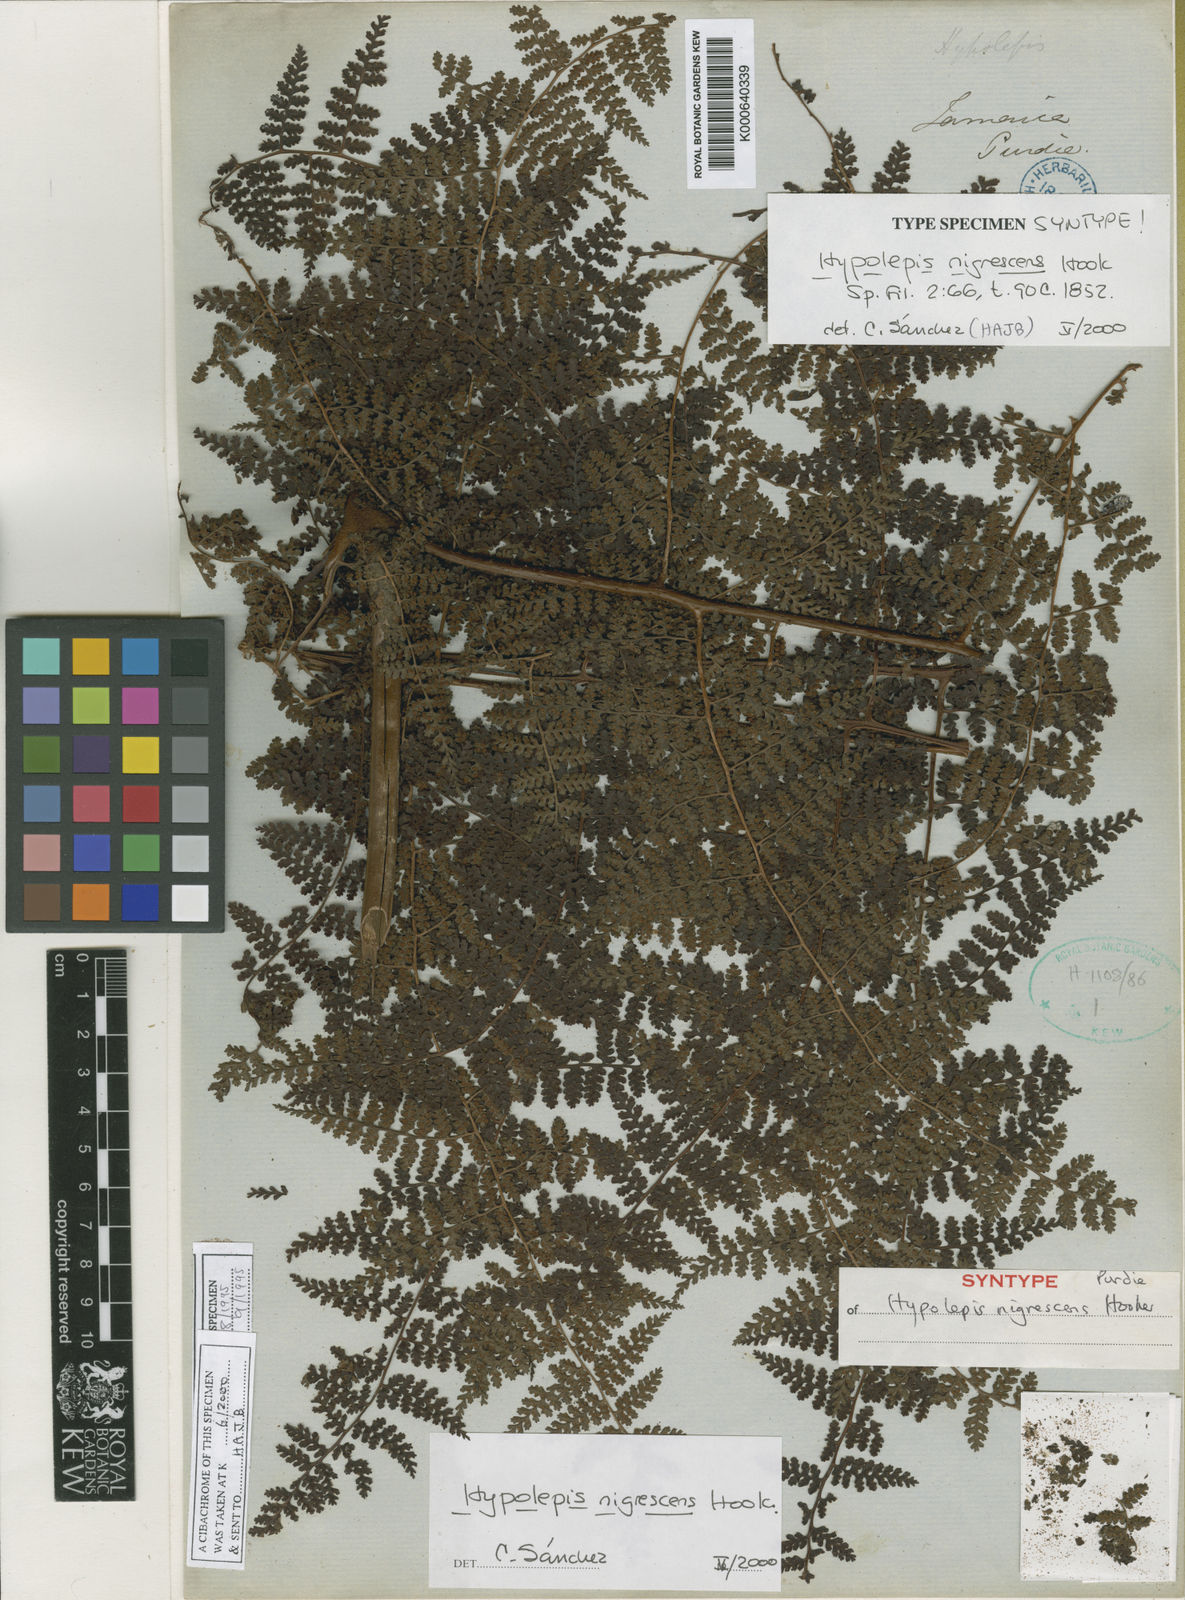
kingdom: Plantae
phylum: Tracheophyta
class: Polypodiopsida
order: Polypodiales
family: Dennstaedtiaceae
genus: Hiya
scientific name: Hiya nigrescens
